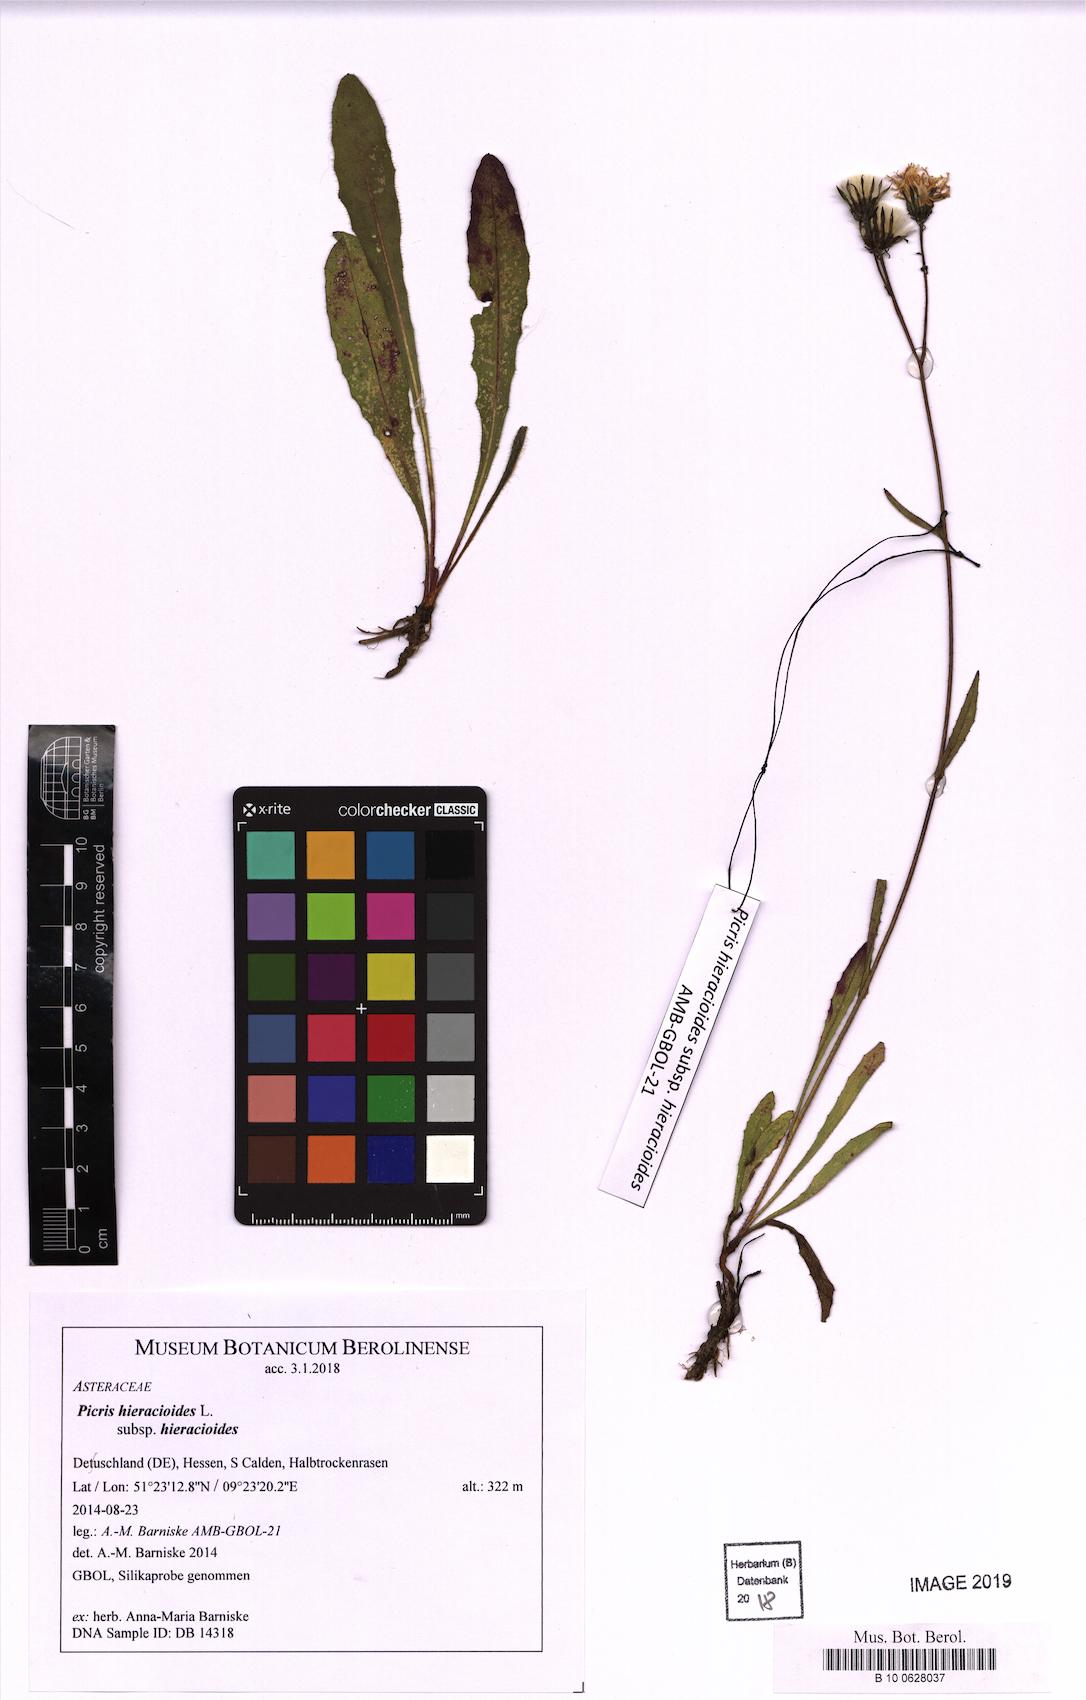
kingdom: Plantae
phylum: Tracheophyta
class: Magnoliopsida
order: Asterales
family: Asteraceae
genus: Picris
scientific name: Picris hieracioides
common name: Hawkweed oxtongue
